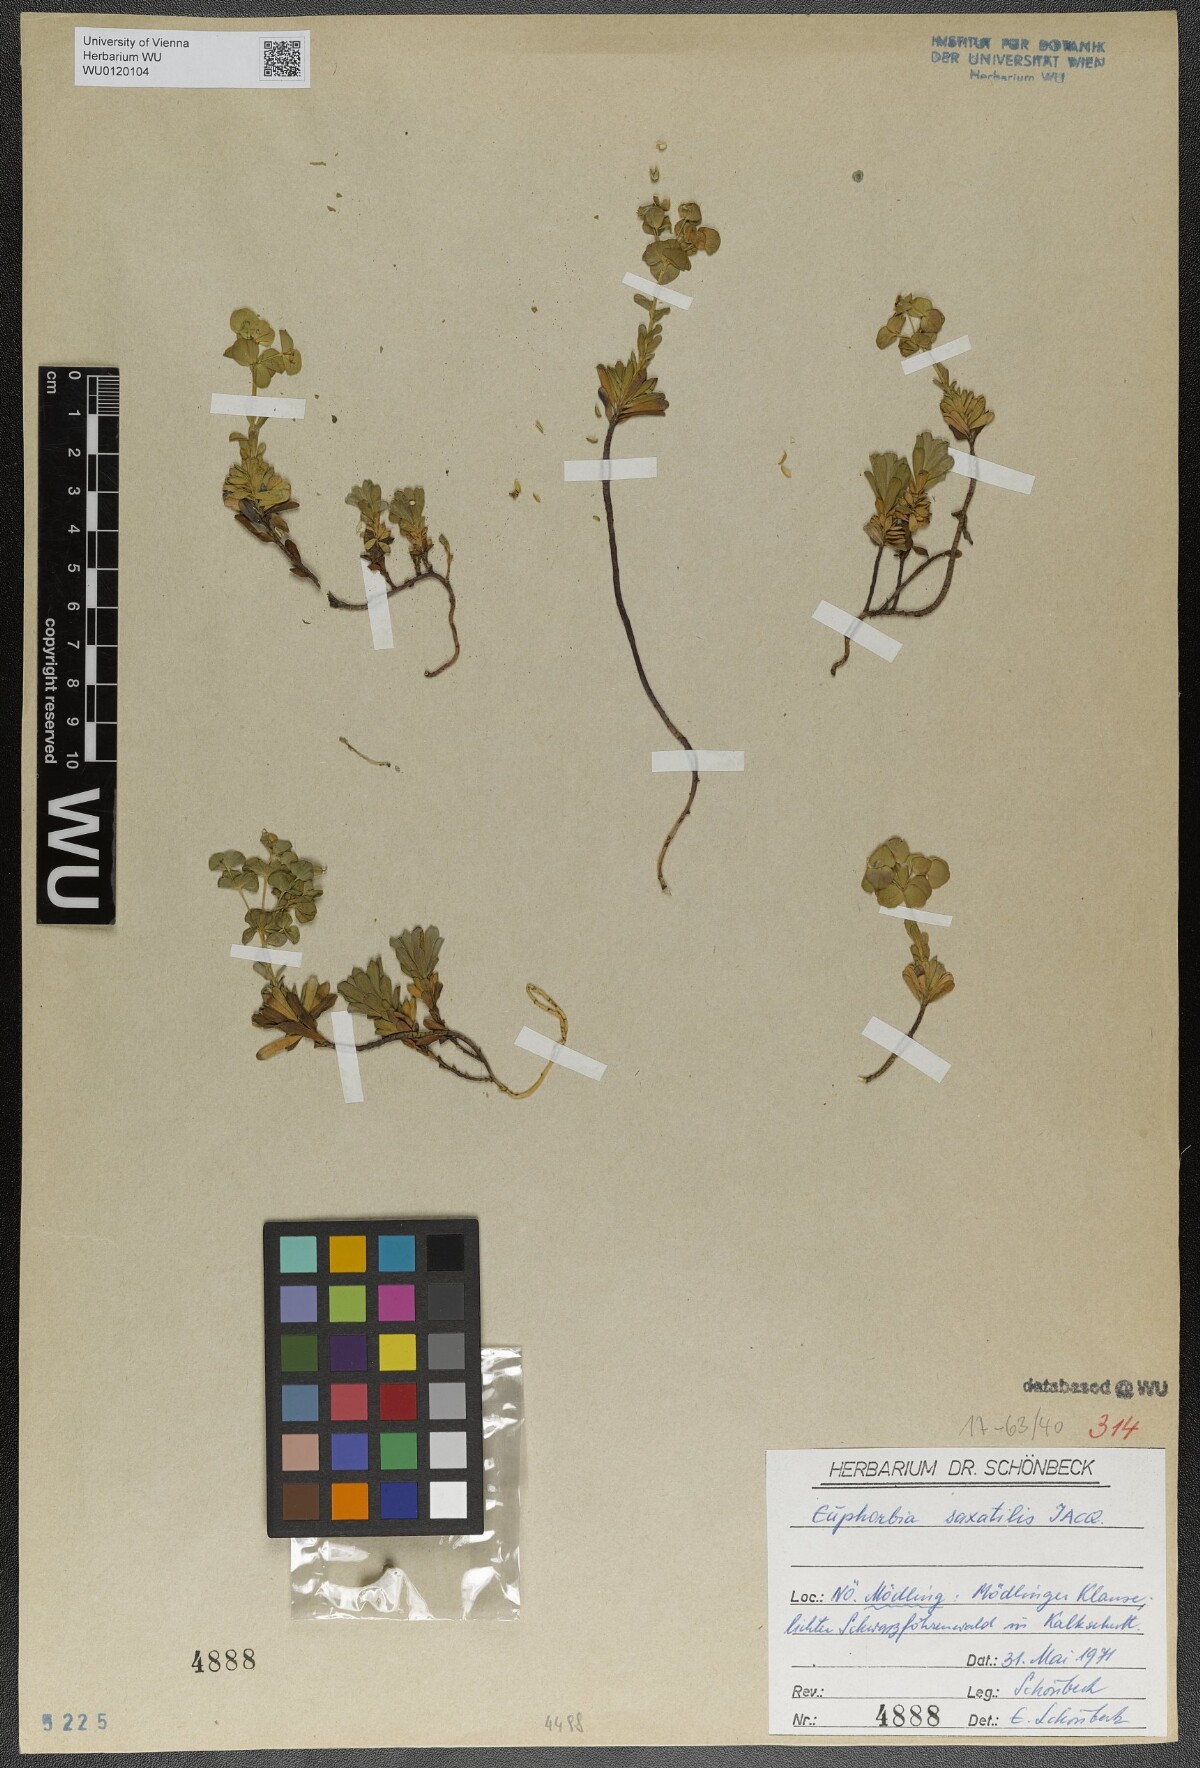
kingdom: Plantae
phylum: Tracheophyta
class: Magnoliopsida
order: Malpighiales
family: Euphorbiaceae
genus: Euphorbia
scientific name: Euphorbia saxatilis
